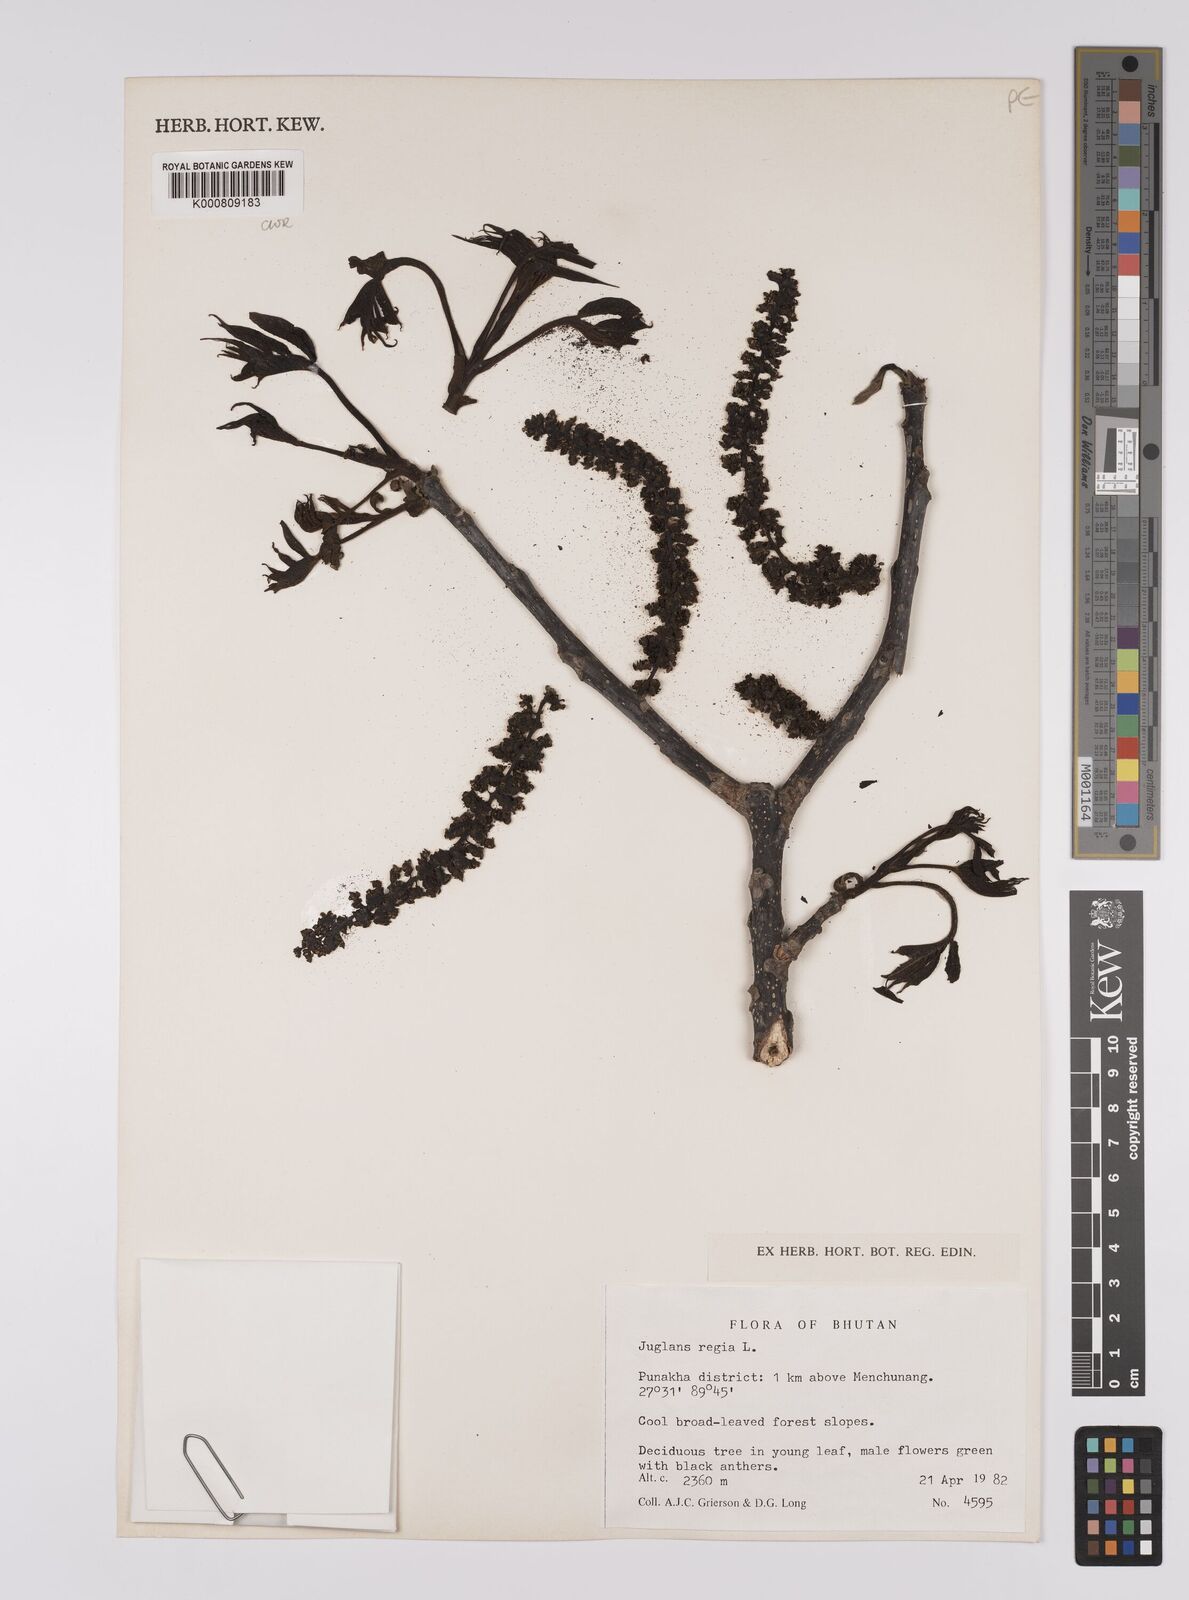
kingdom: Plantae
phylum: Tracheophyta
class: Magnoliopsida
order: Fagales
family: Juglandaceae
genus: Juglans
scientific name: Juglans regia
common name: Walnut
